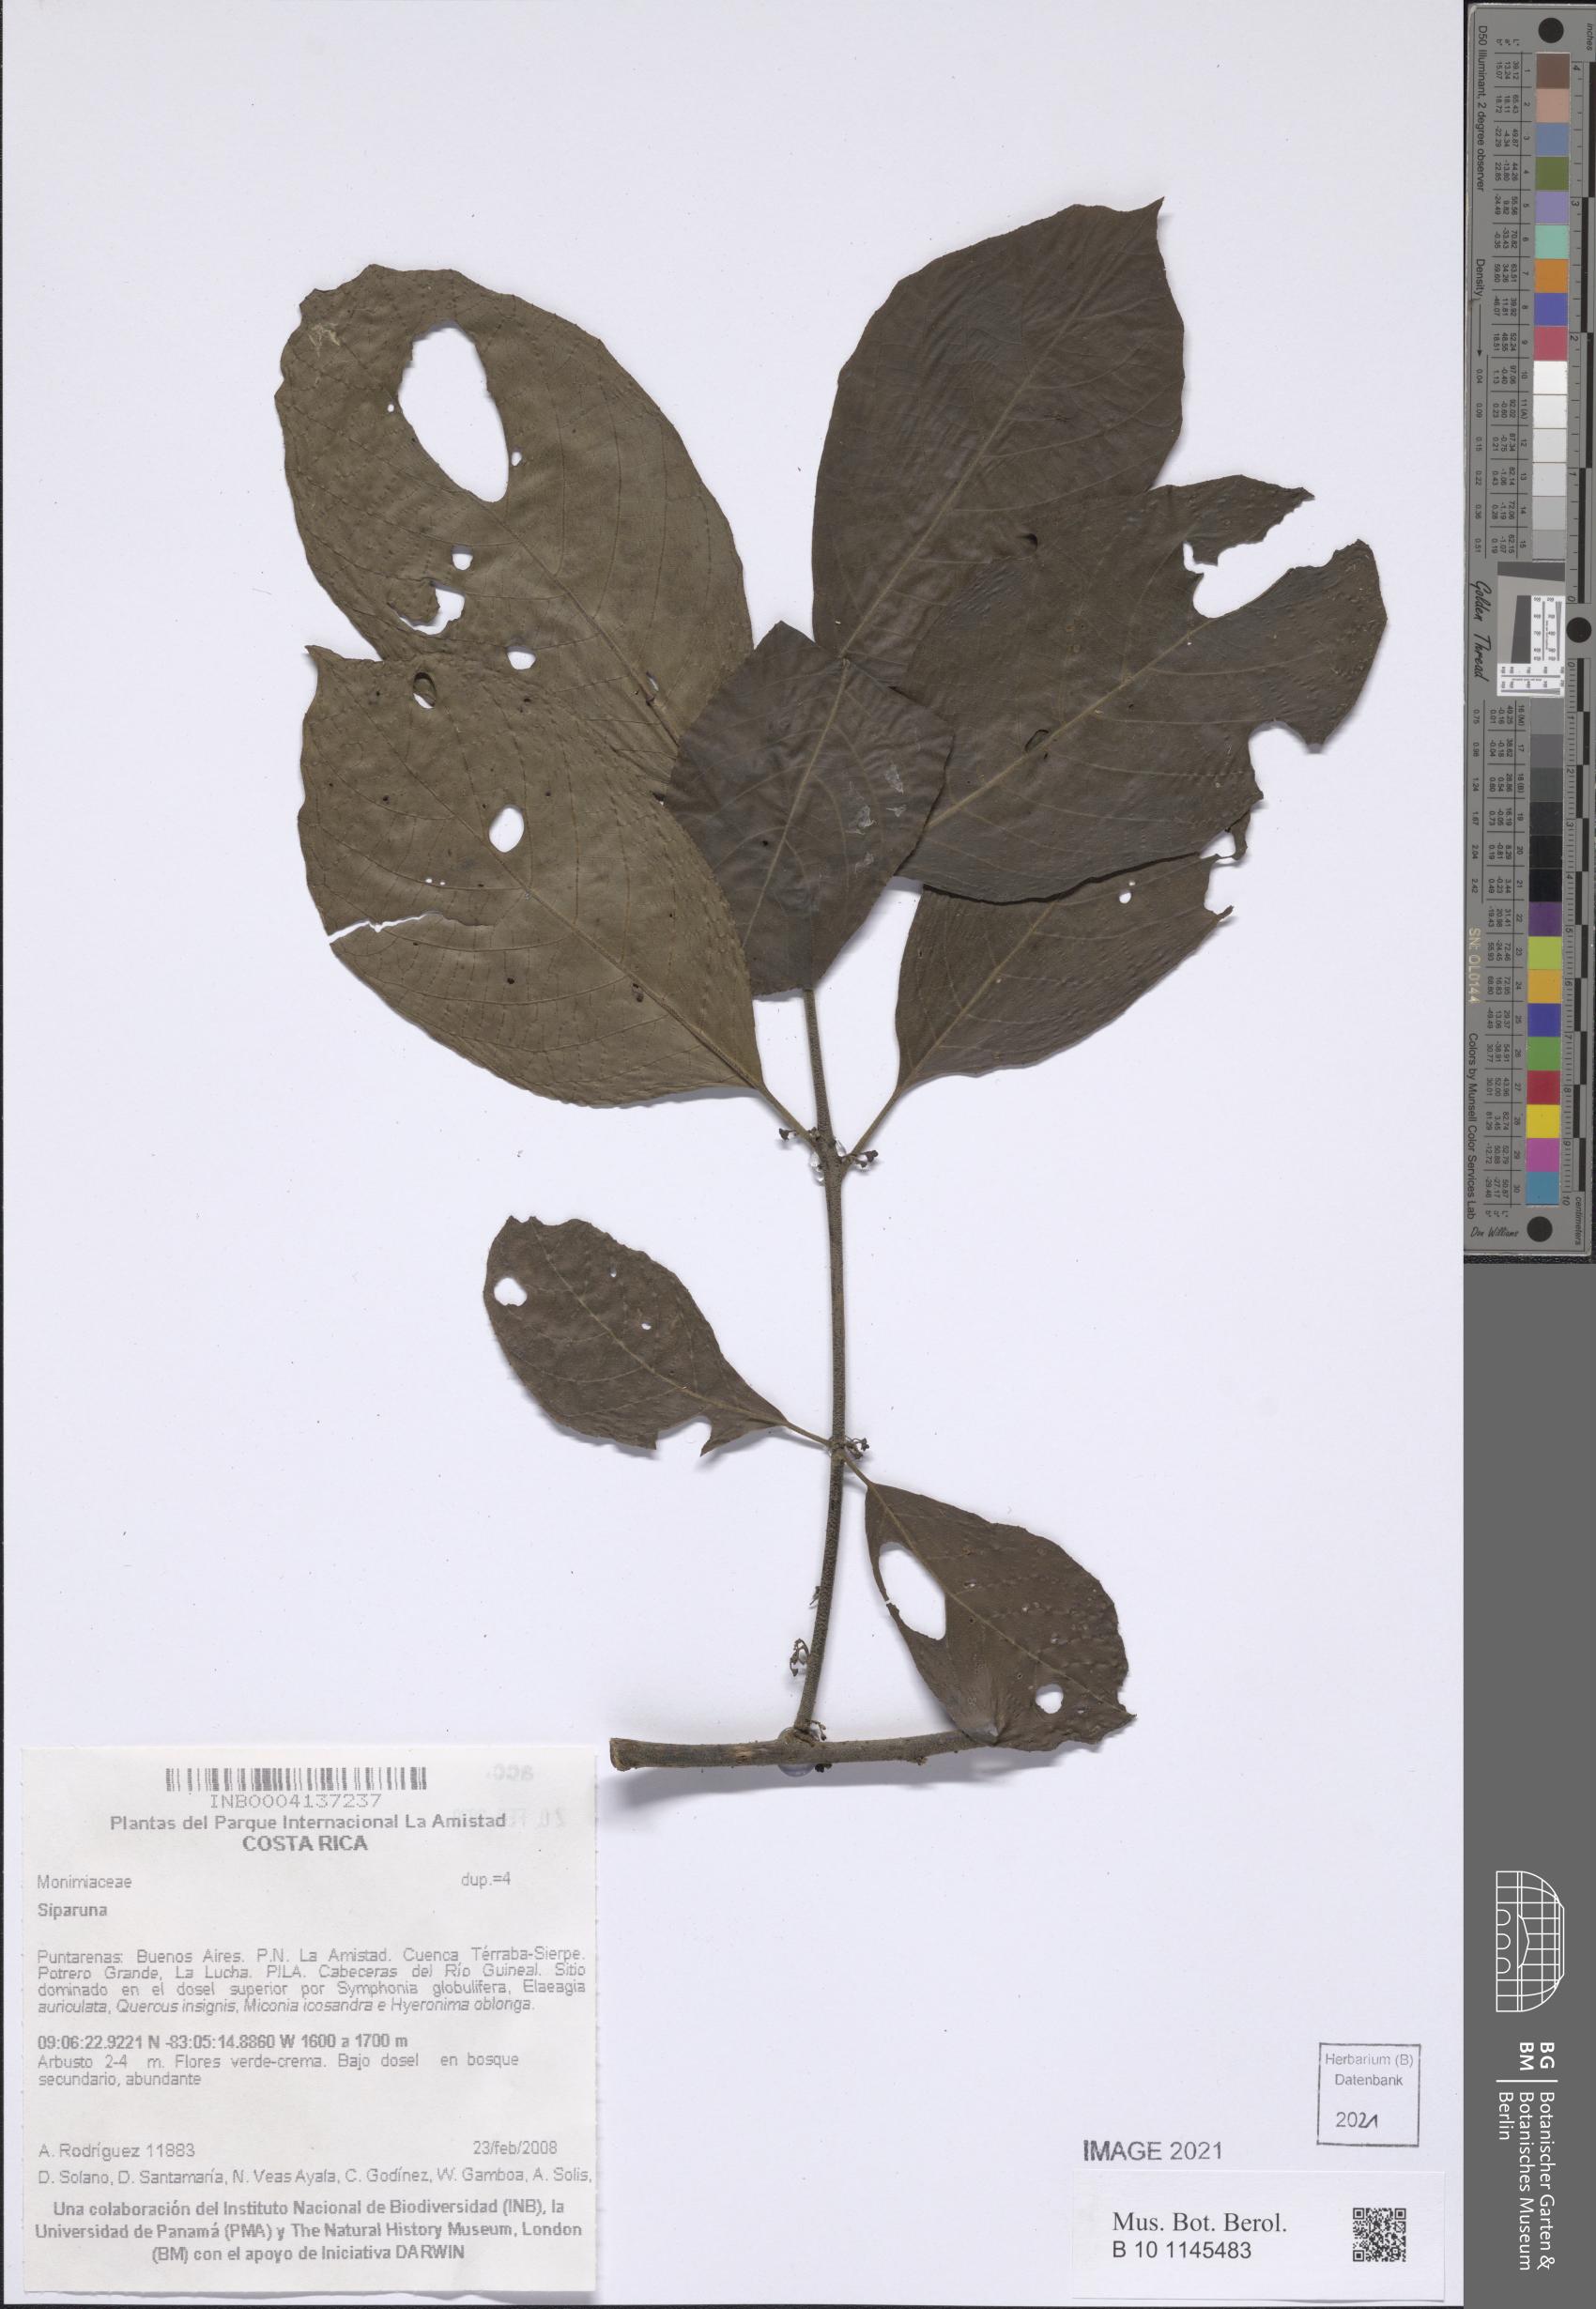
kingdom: Plantae
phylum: Tracheophyta
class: Magnoliopsida
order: Laurales
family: Siparunaceae
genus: Siparuna
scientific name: Siparuna
